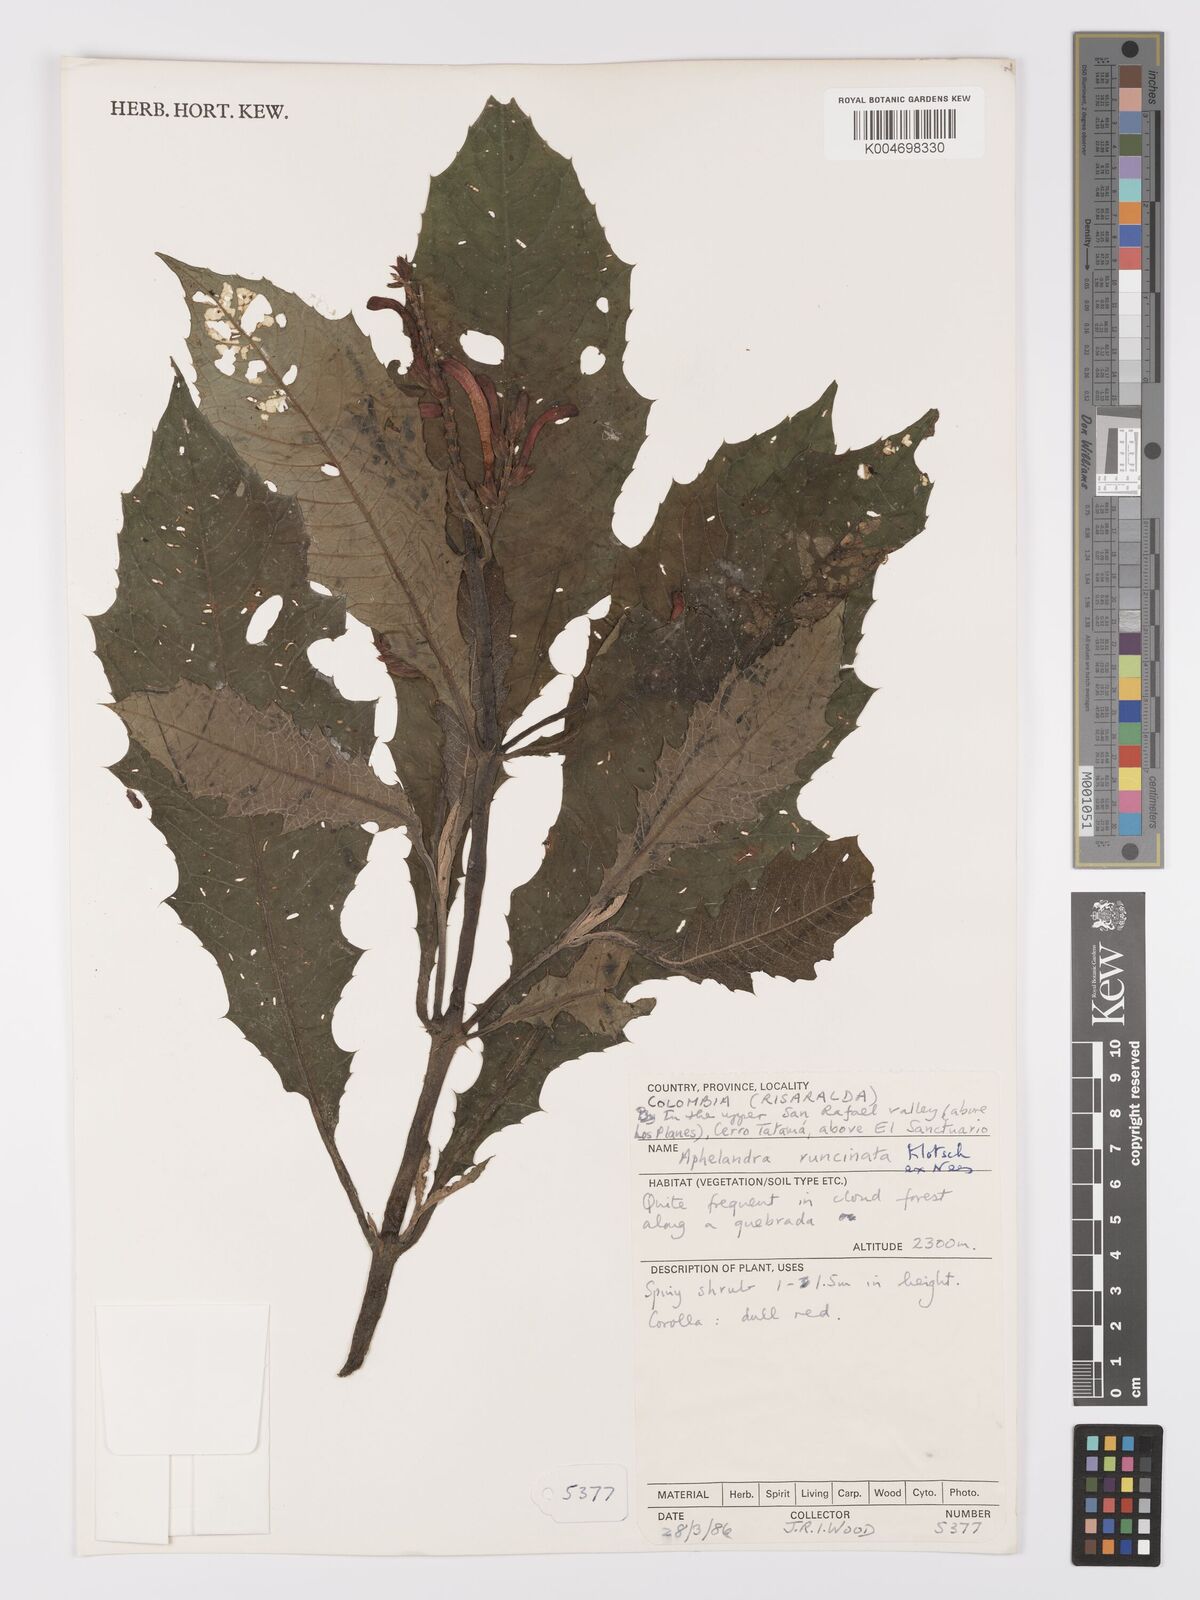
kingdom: Plantae
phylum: Tracheophyta
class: Magnoliopsida
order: Lamiales
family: Acanthaceae
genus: Aphelandra
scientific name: Aphelandra runcinata
